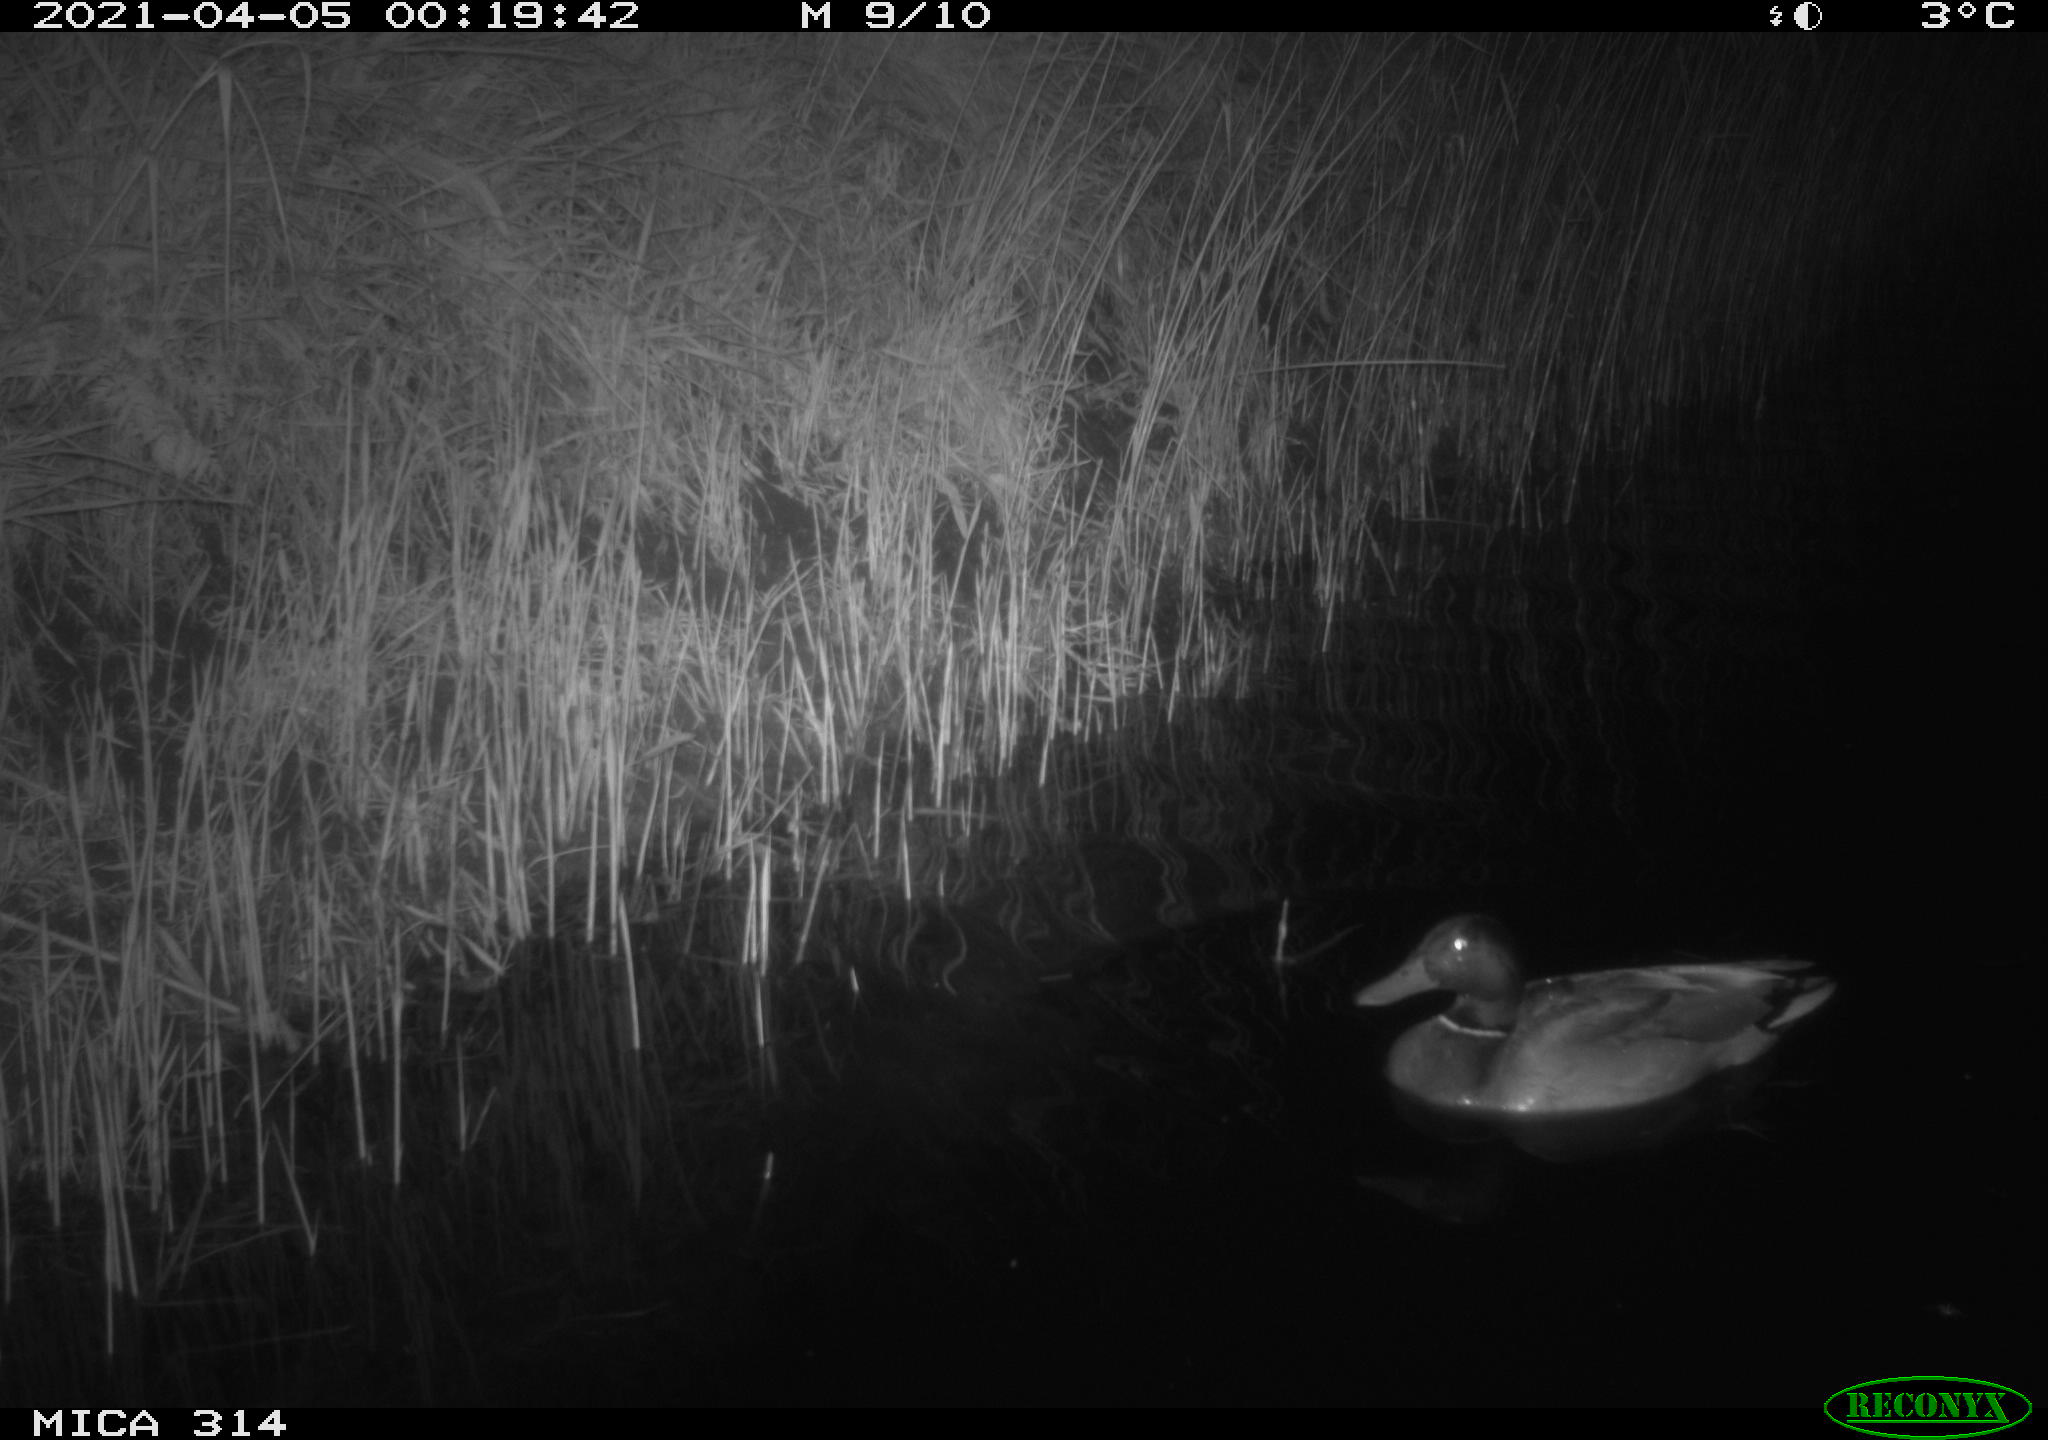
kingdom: Animalia
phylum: Chordata
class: Aves
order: Anseriformes
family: Anatidae
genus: Anas
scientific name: Anas platyrhynchos
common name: Mallard
